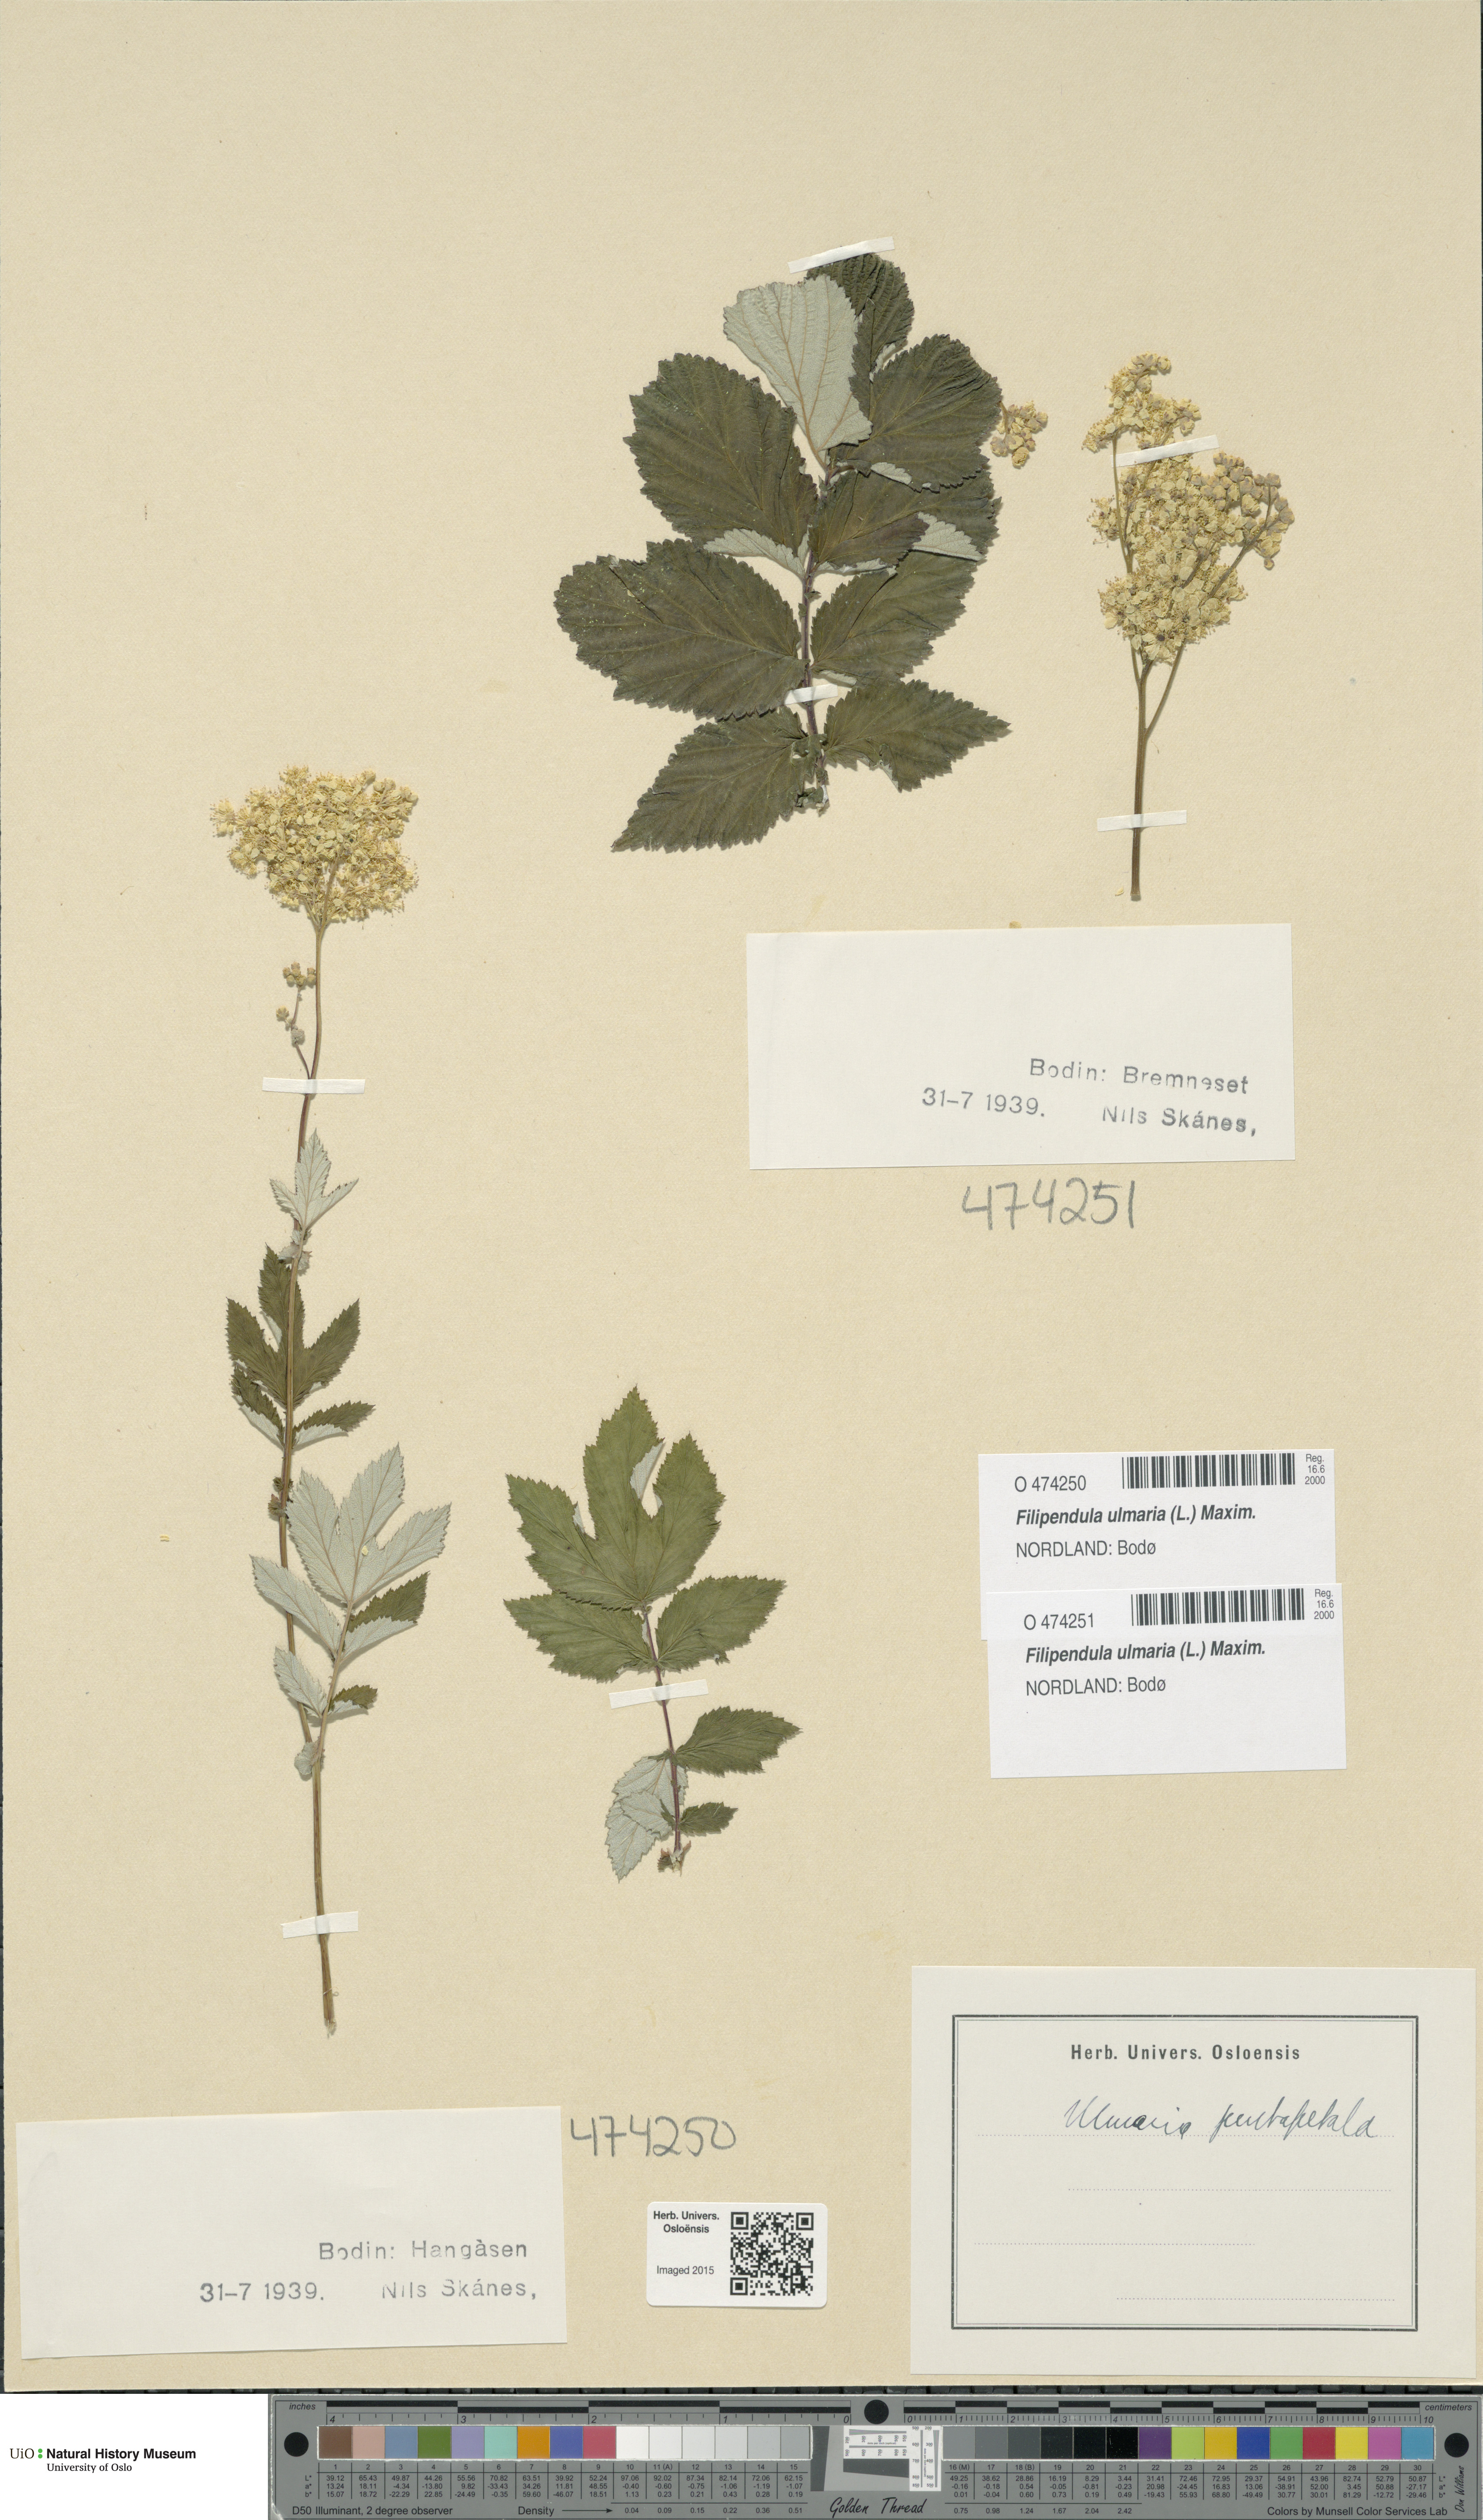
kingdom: Plantae
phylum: Tracheophyta
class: Magnoliopsida
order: Rosales
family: Rosaceae
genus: Filipendula
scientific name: Filipendula ulmaria
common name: Meadowsweet
